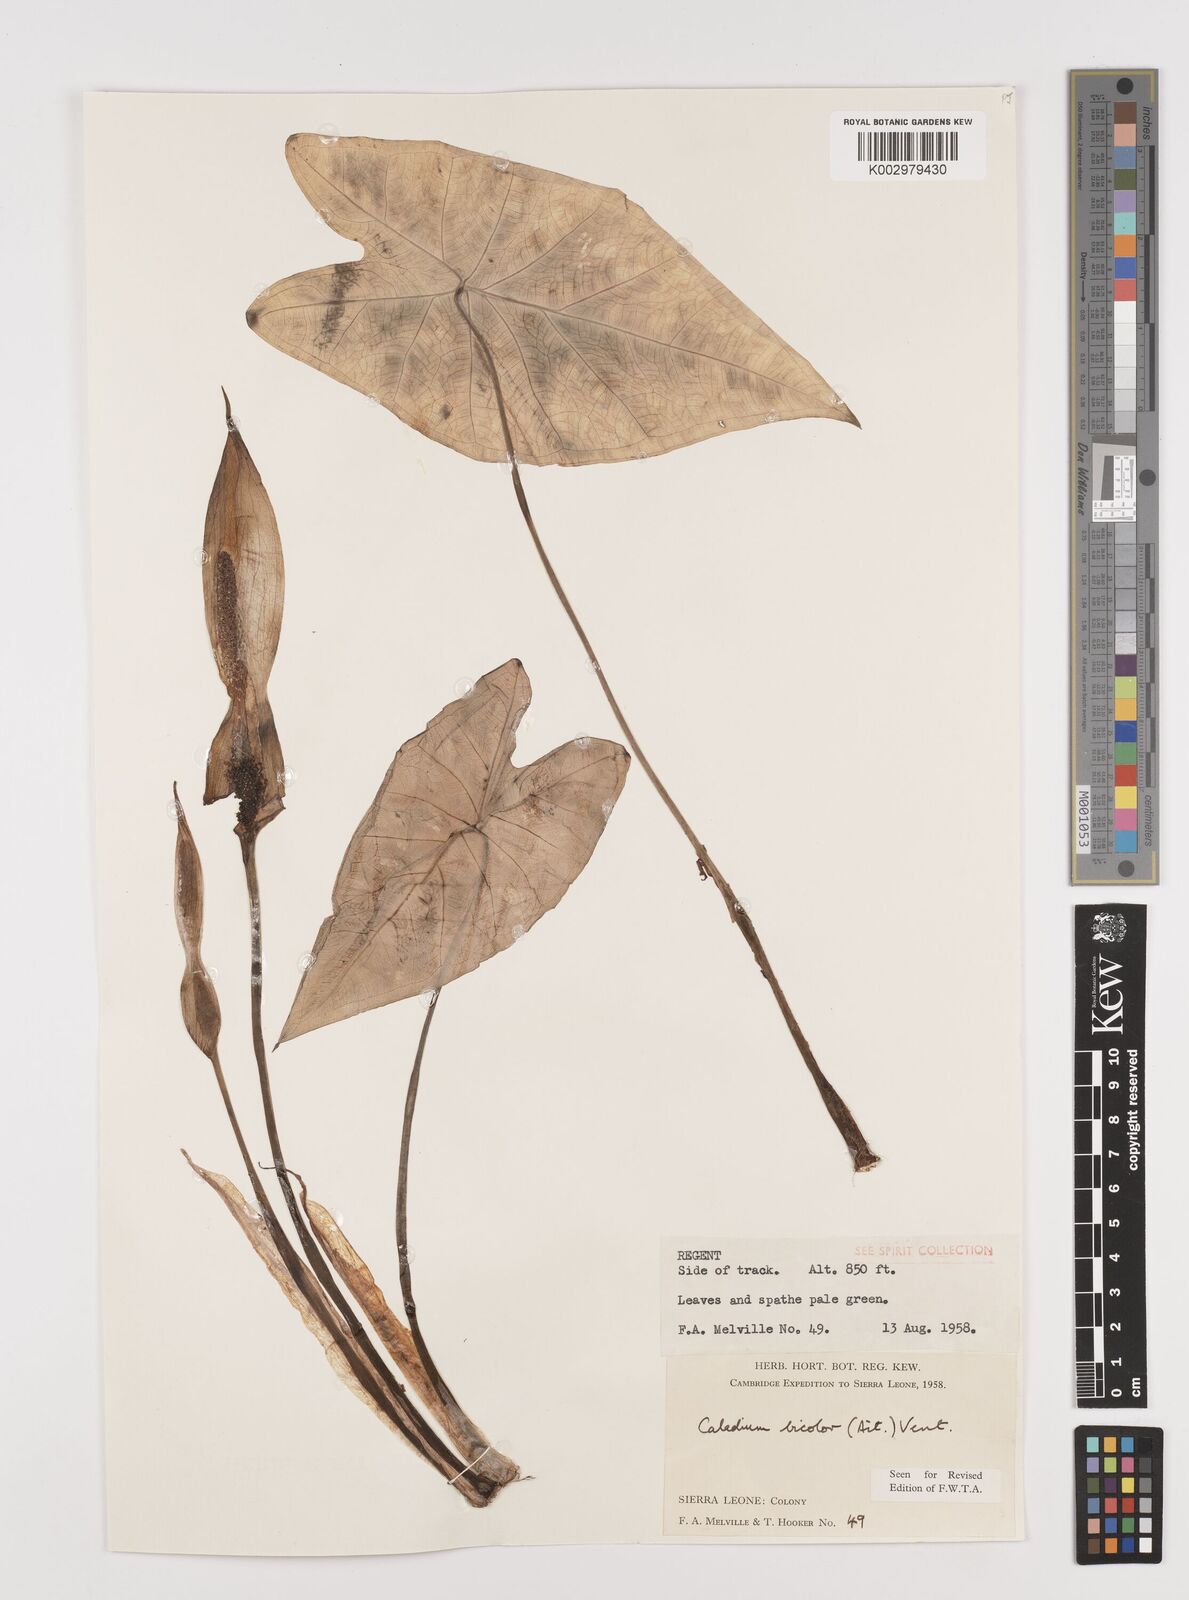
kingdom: Plantae
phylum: Tracheophyta
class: Liliopsida
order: Alismatales
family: Araceae
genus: Caladium
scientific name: Caladium bicolor
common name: Artist's pallet
